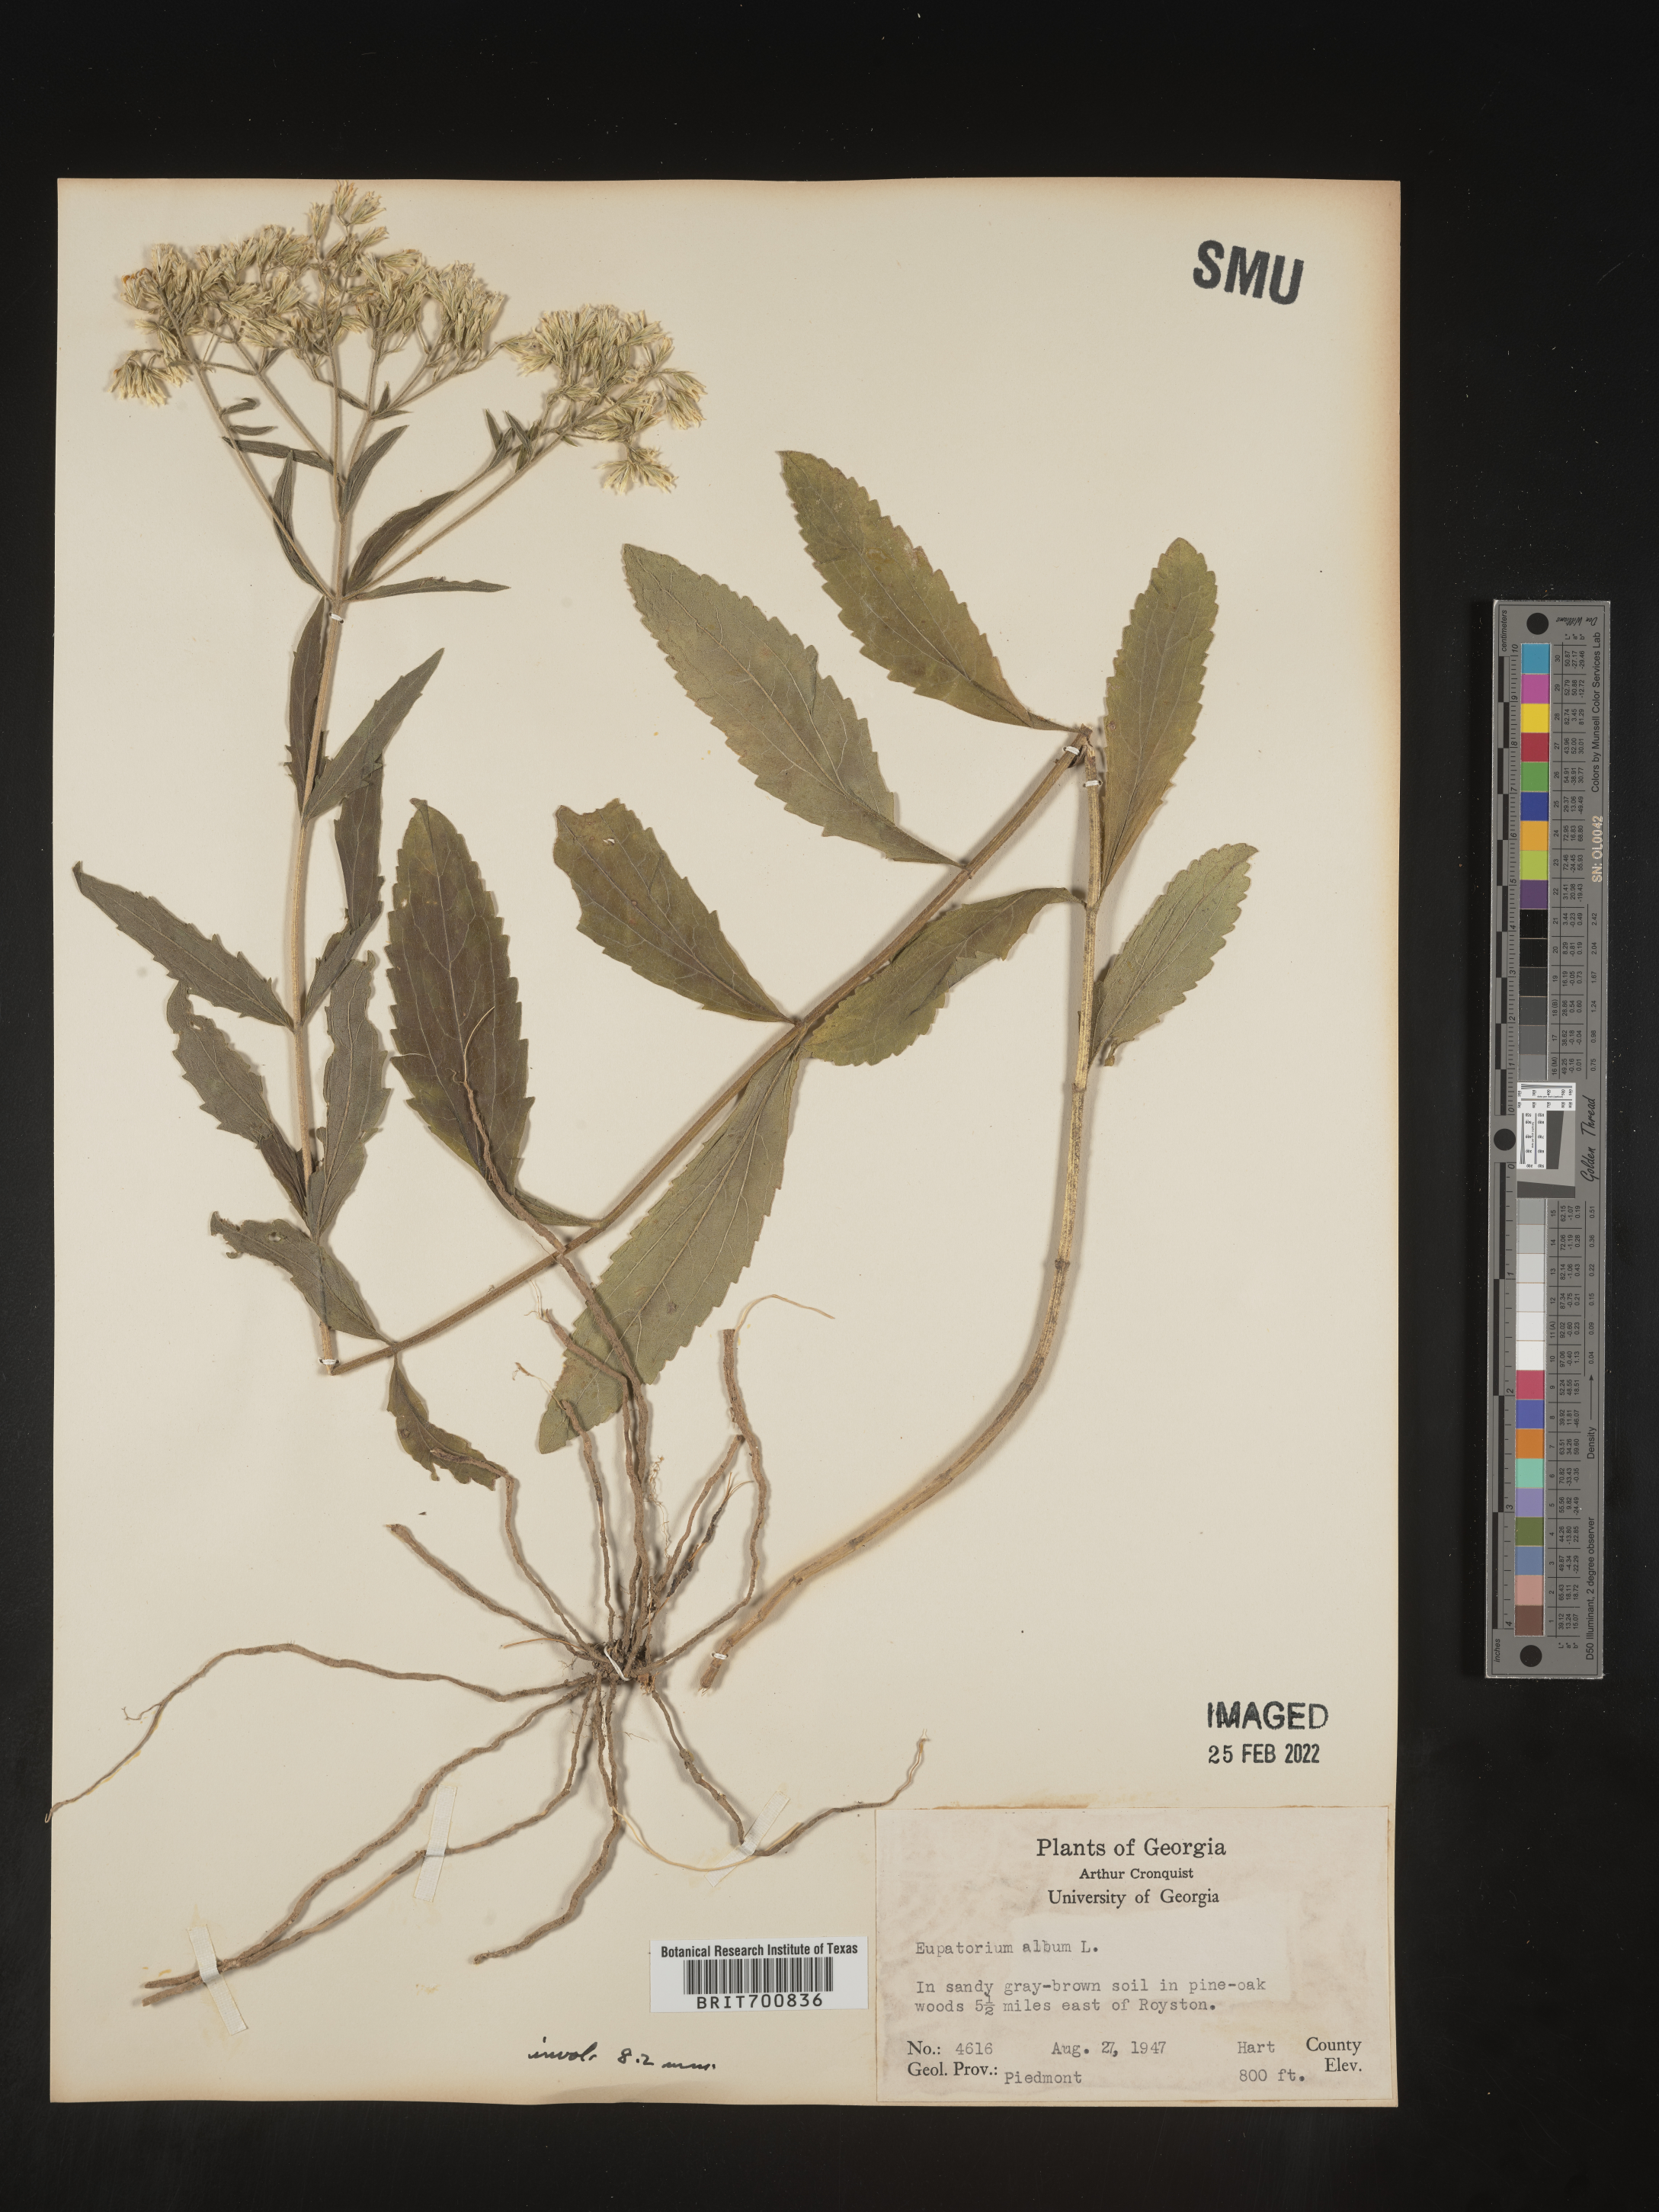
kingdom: Plantae
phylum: Tracheophyta
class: Magnoliopsida
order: Asterales
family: Asteraceae
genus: Eupatorium
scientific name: Eupatorium album
